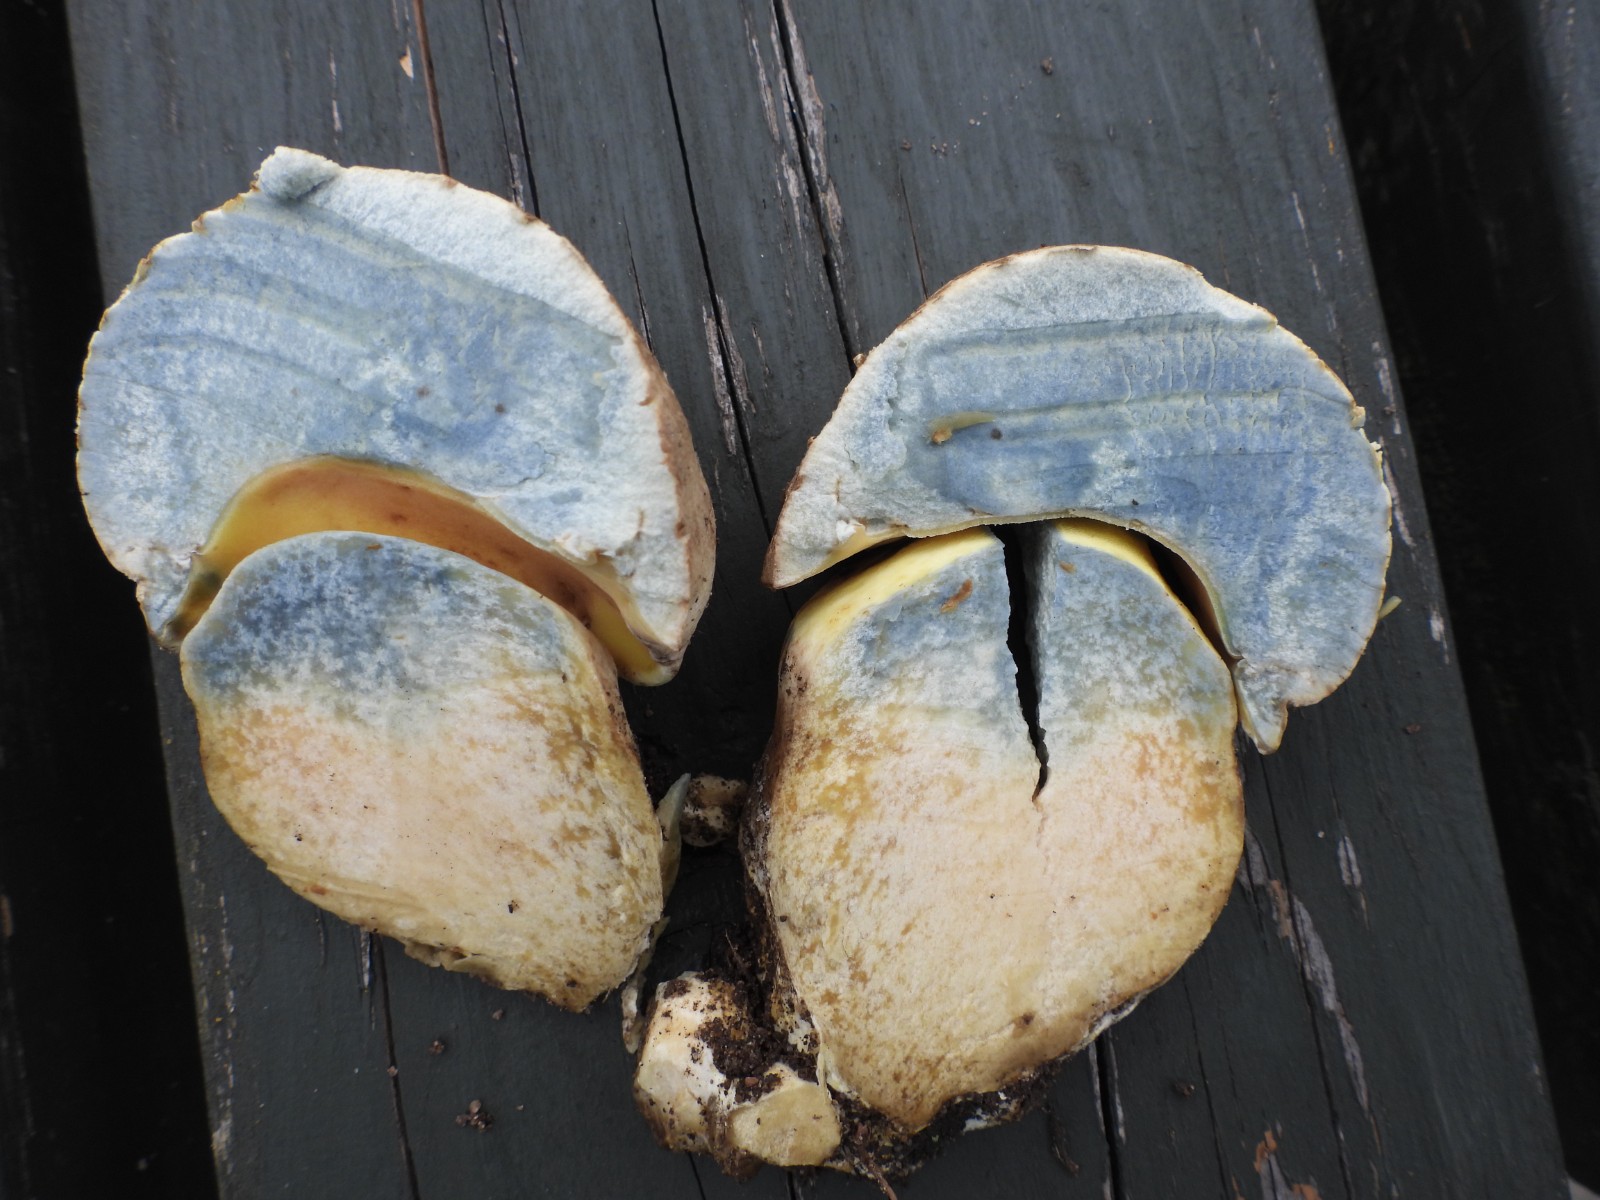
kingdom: Fungi
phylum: Basidiomycota
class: Agaricomycetes
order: Boletales
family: Boletaceae
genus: Caloboletus
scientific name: Caloboletus radicans
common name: rod-rørhat
